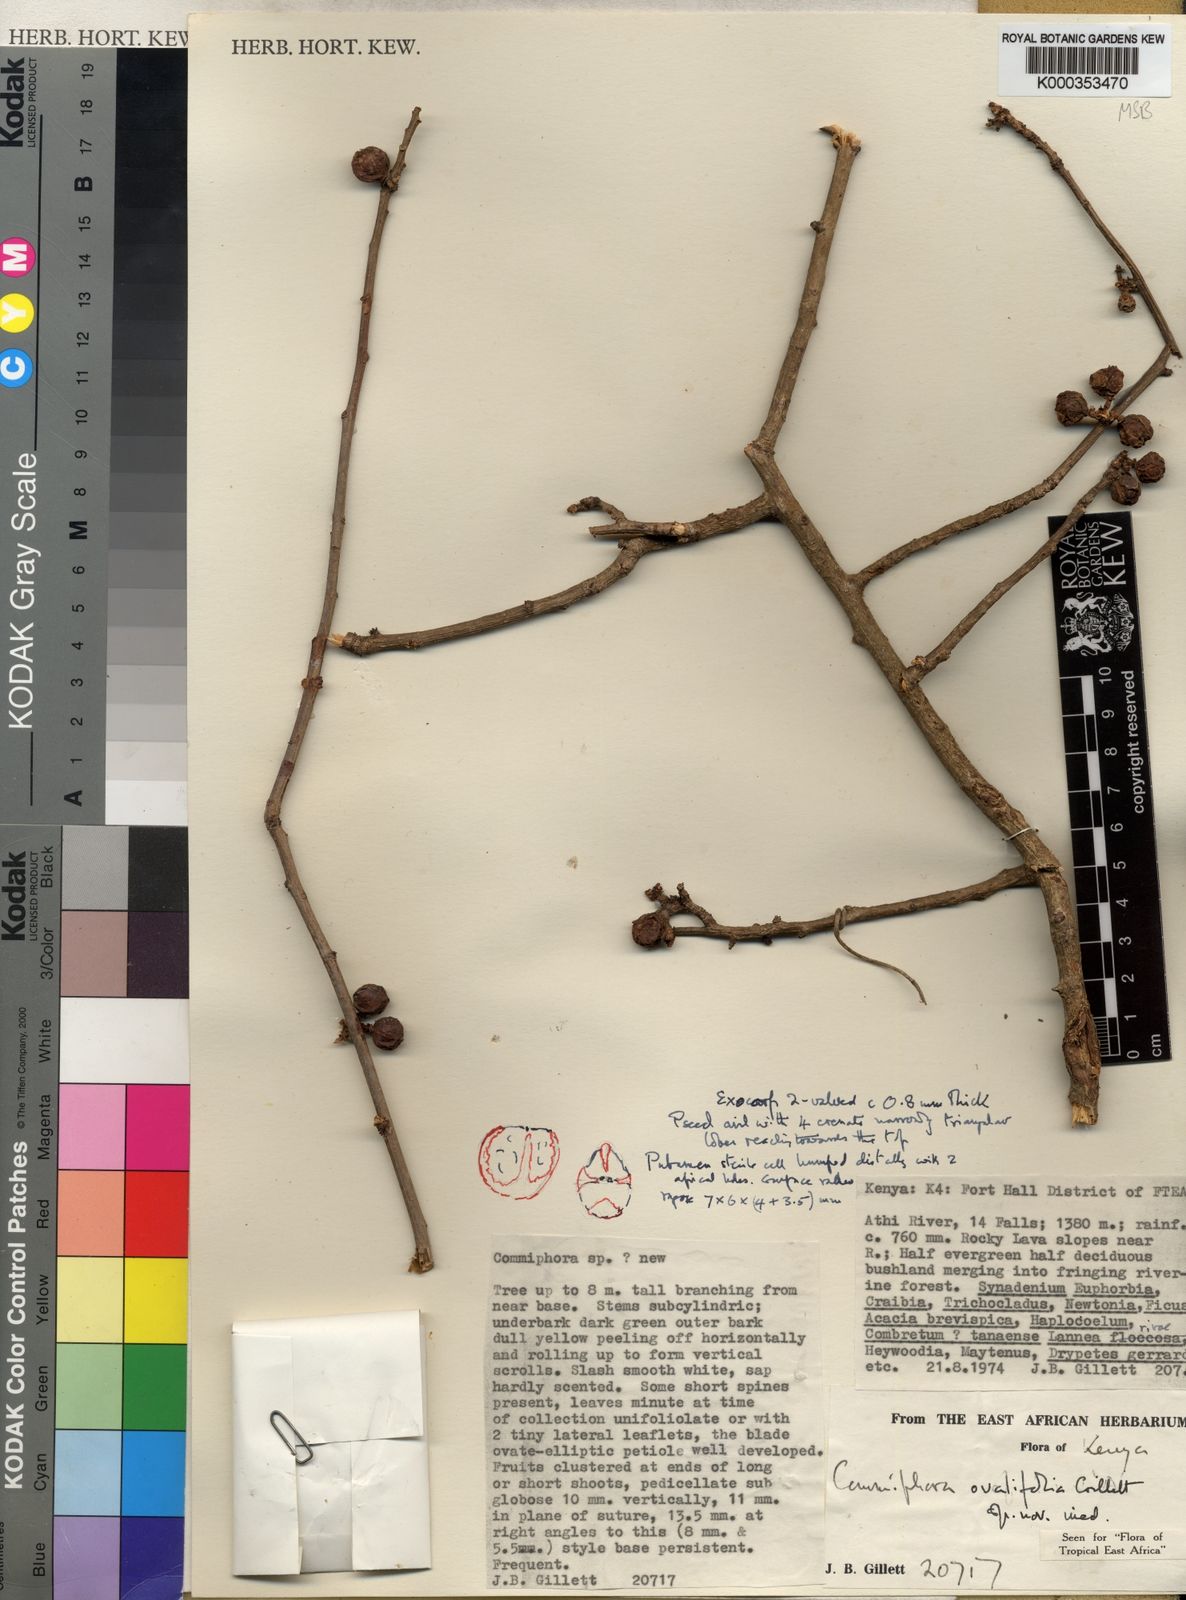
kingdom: Plantae
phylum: Tracheophyta
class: Magnoliopsida
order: Sapindales
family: Burseraceae
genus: Commiphora
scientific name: Commiphora ovalifolia
